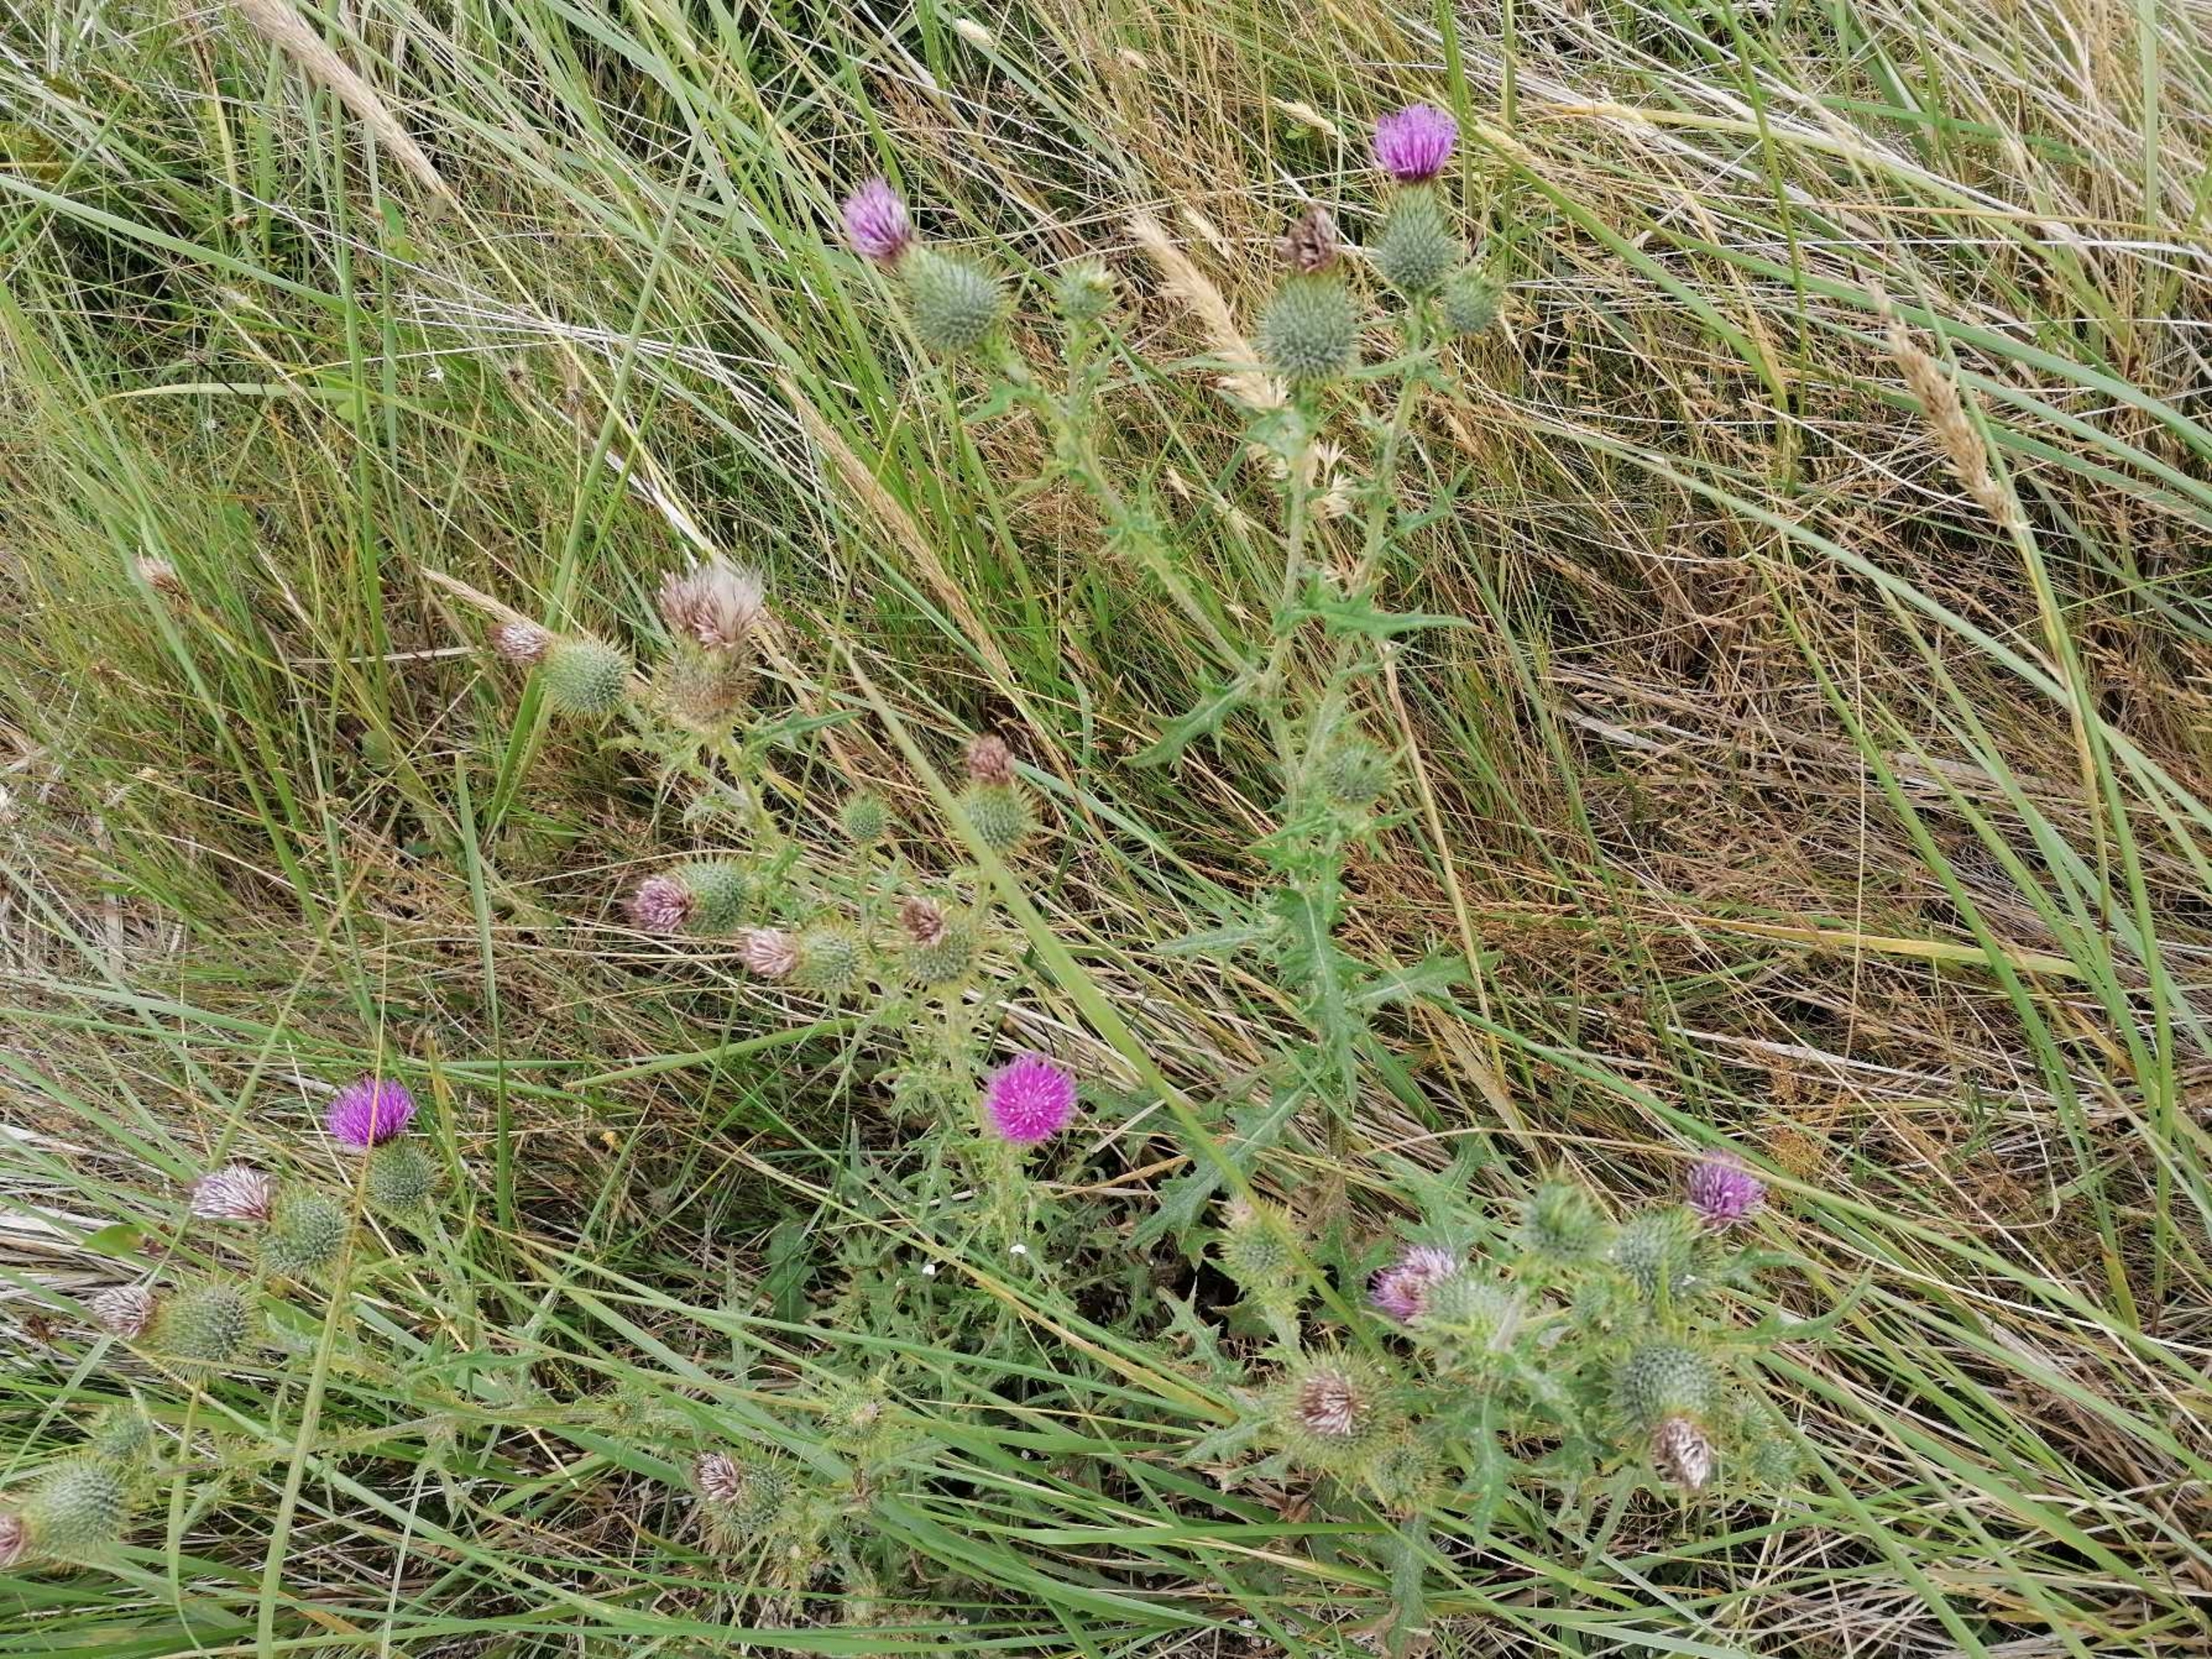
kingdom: Plantae
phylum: Tracheophyta
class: Magnoliopsida
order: Asterales
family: Asteraceae
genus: Cirsium
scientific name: Cirsium vulgare
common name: Horse-tidsel
